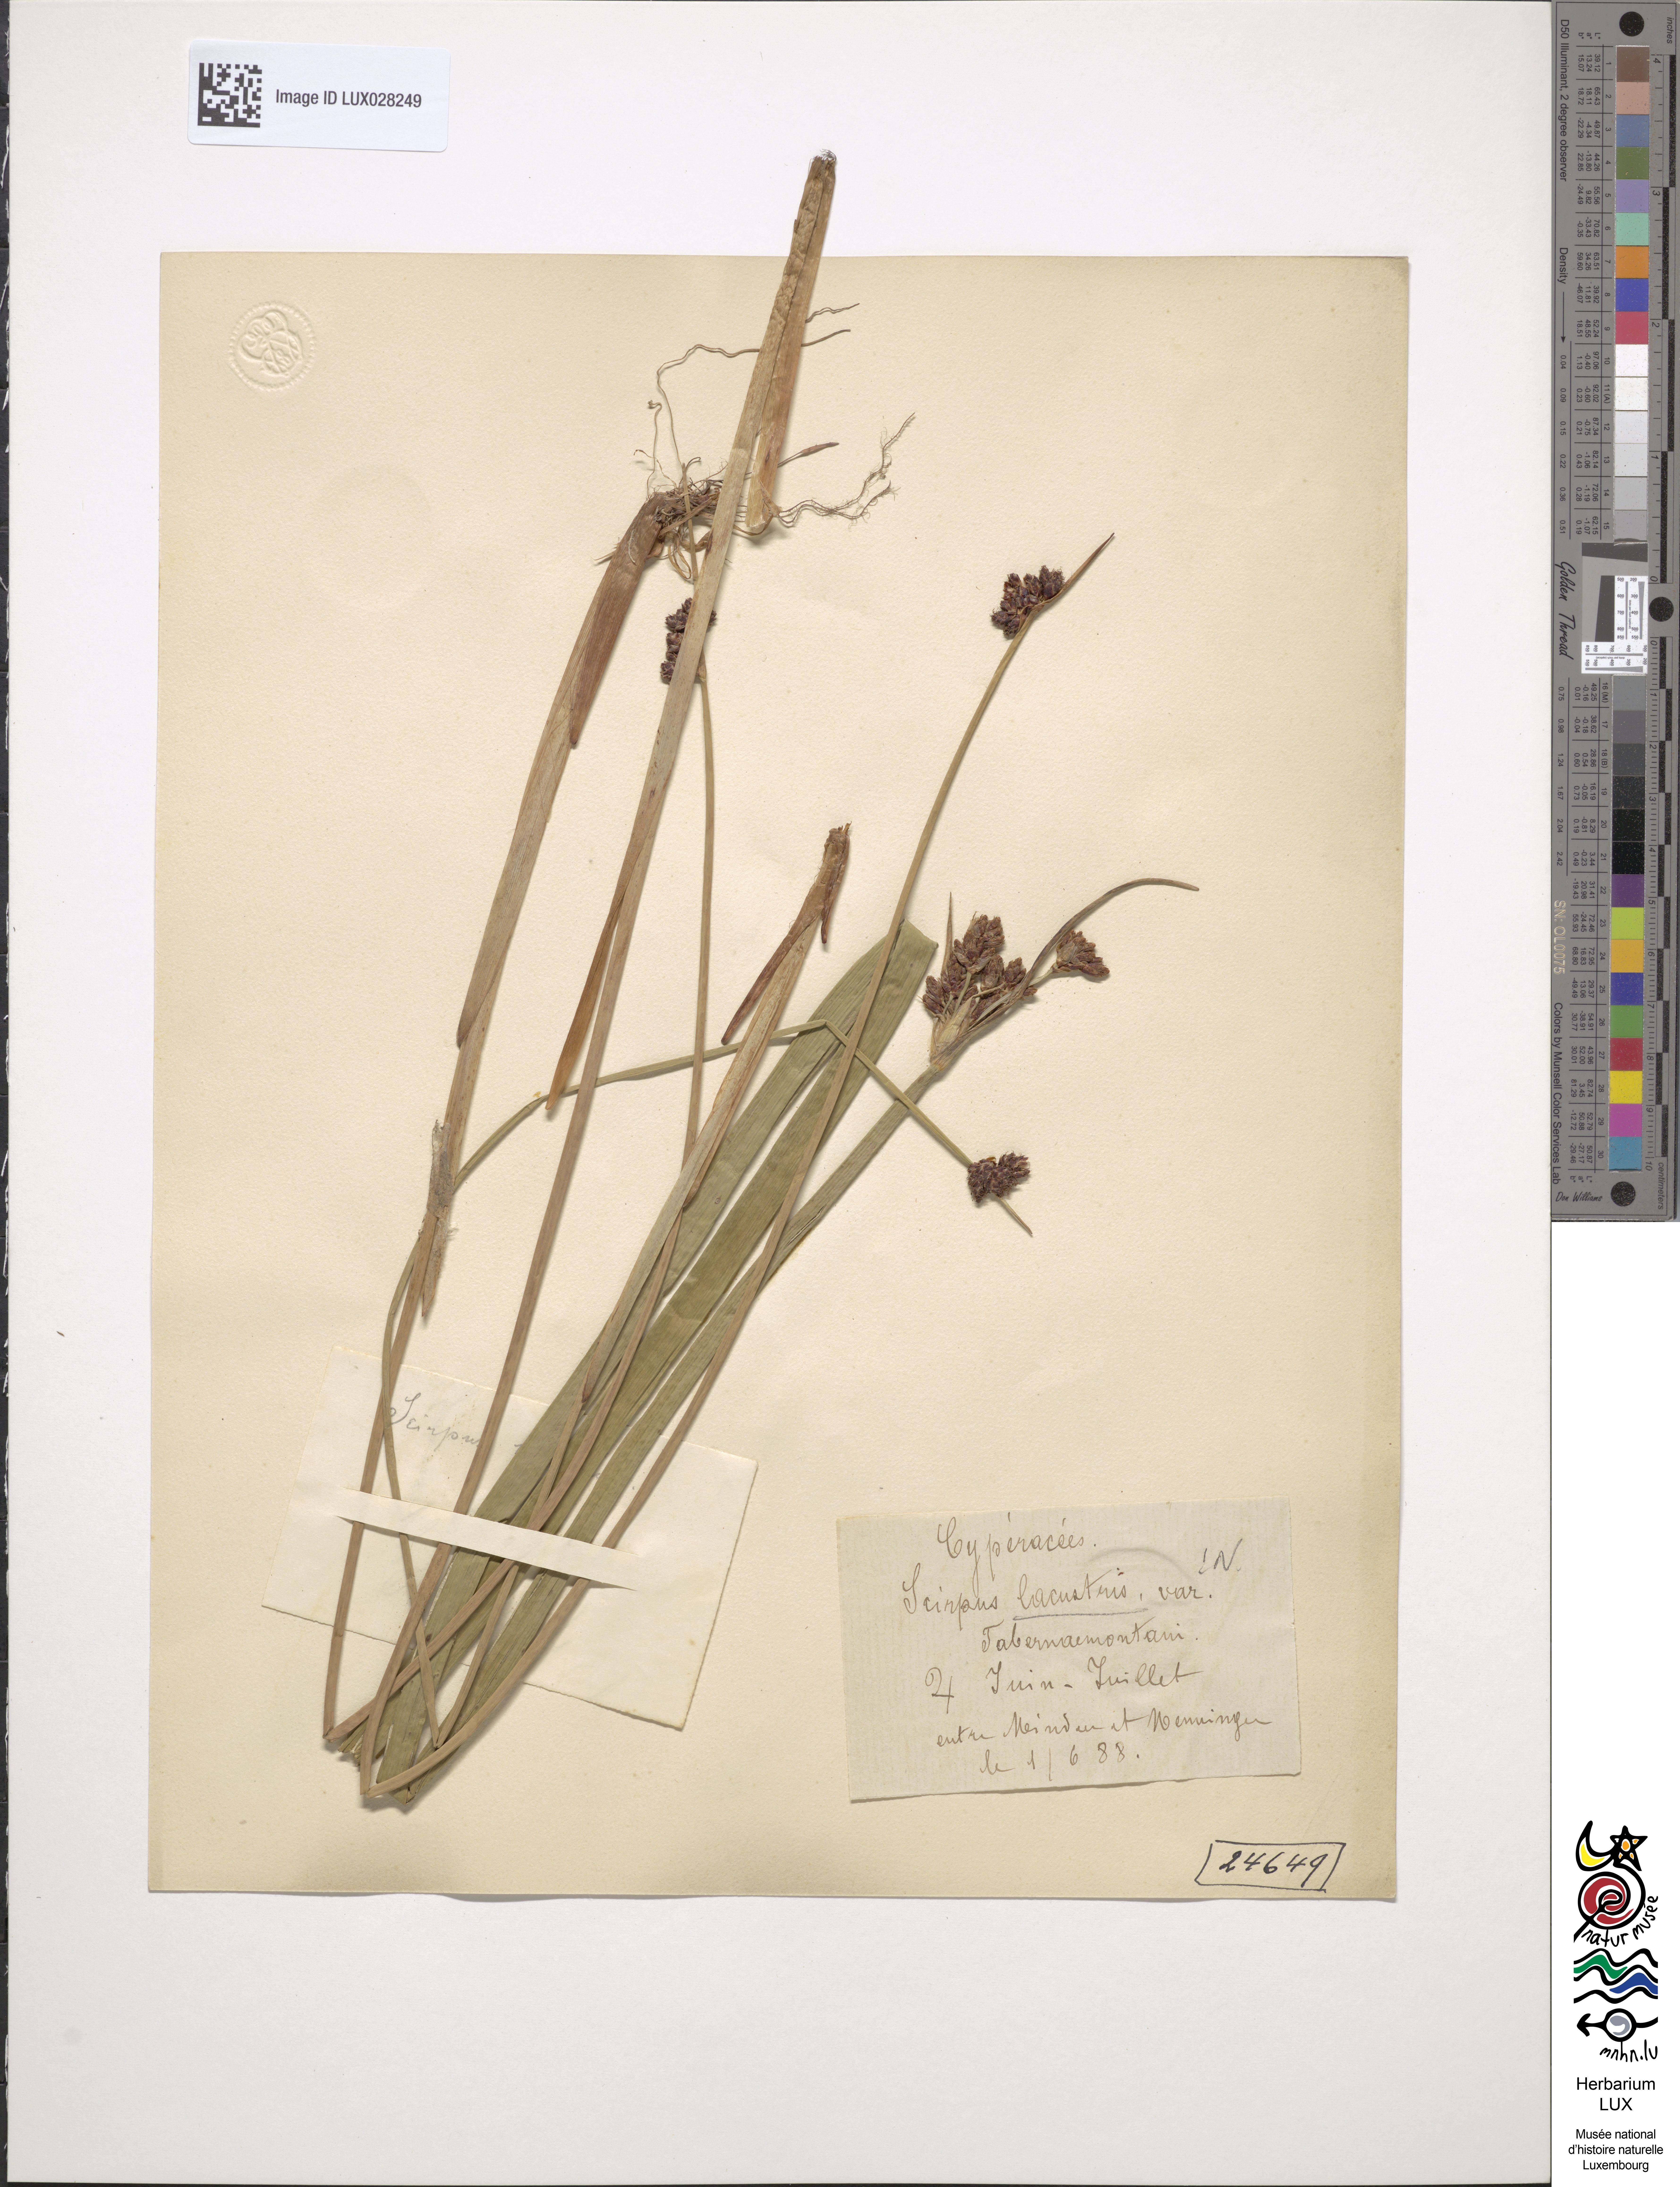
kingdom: Plantae
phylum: Tracheophyta
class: Liliopsida
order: Poales
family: Cyperaceae
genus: Schoenoplectus
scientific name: Schoenoplectus tabernaemontani
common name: Grey club-rush
